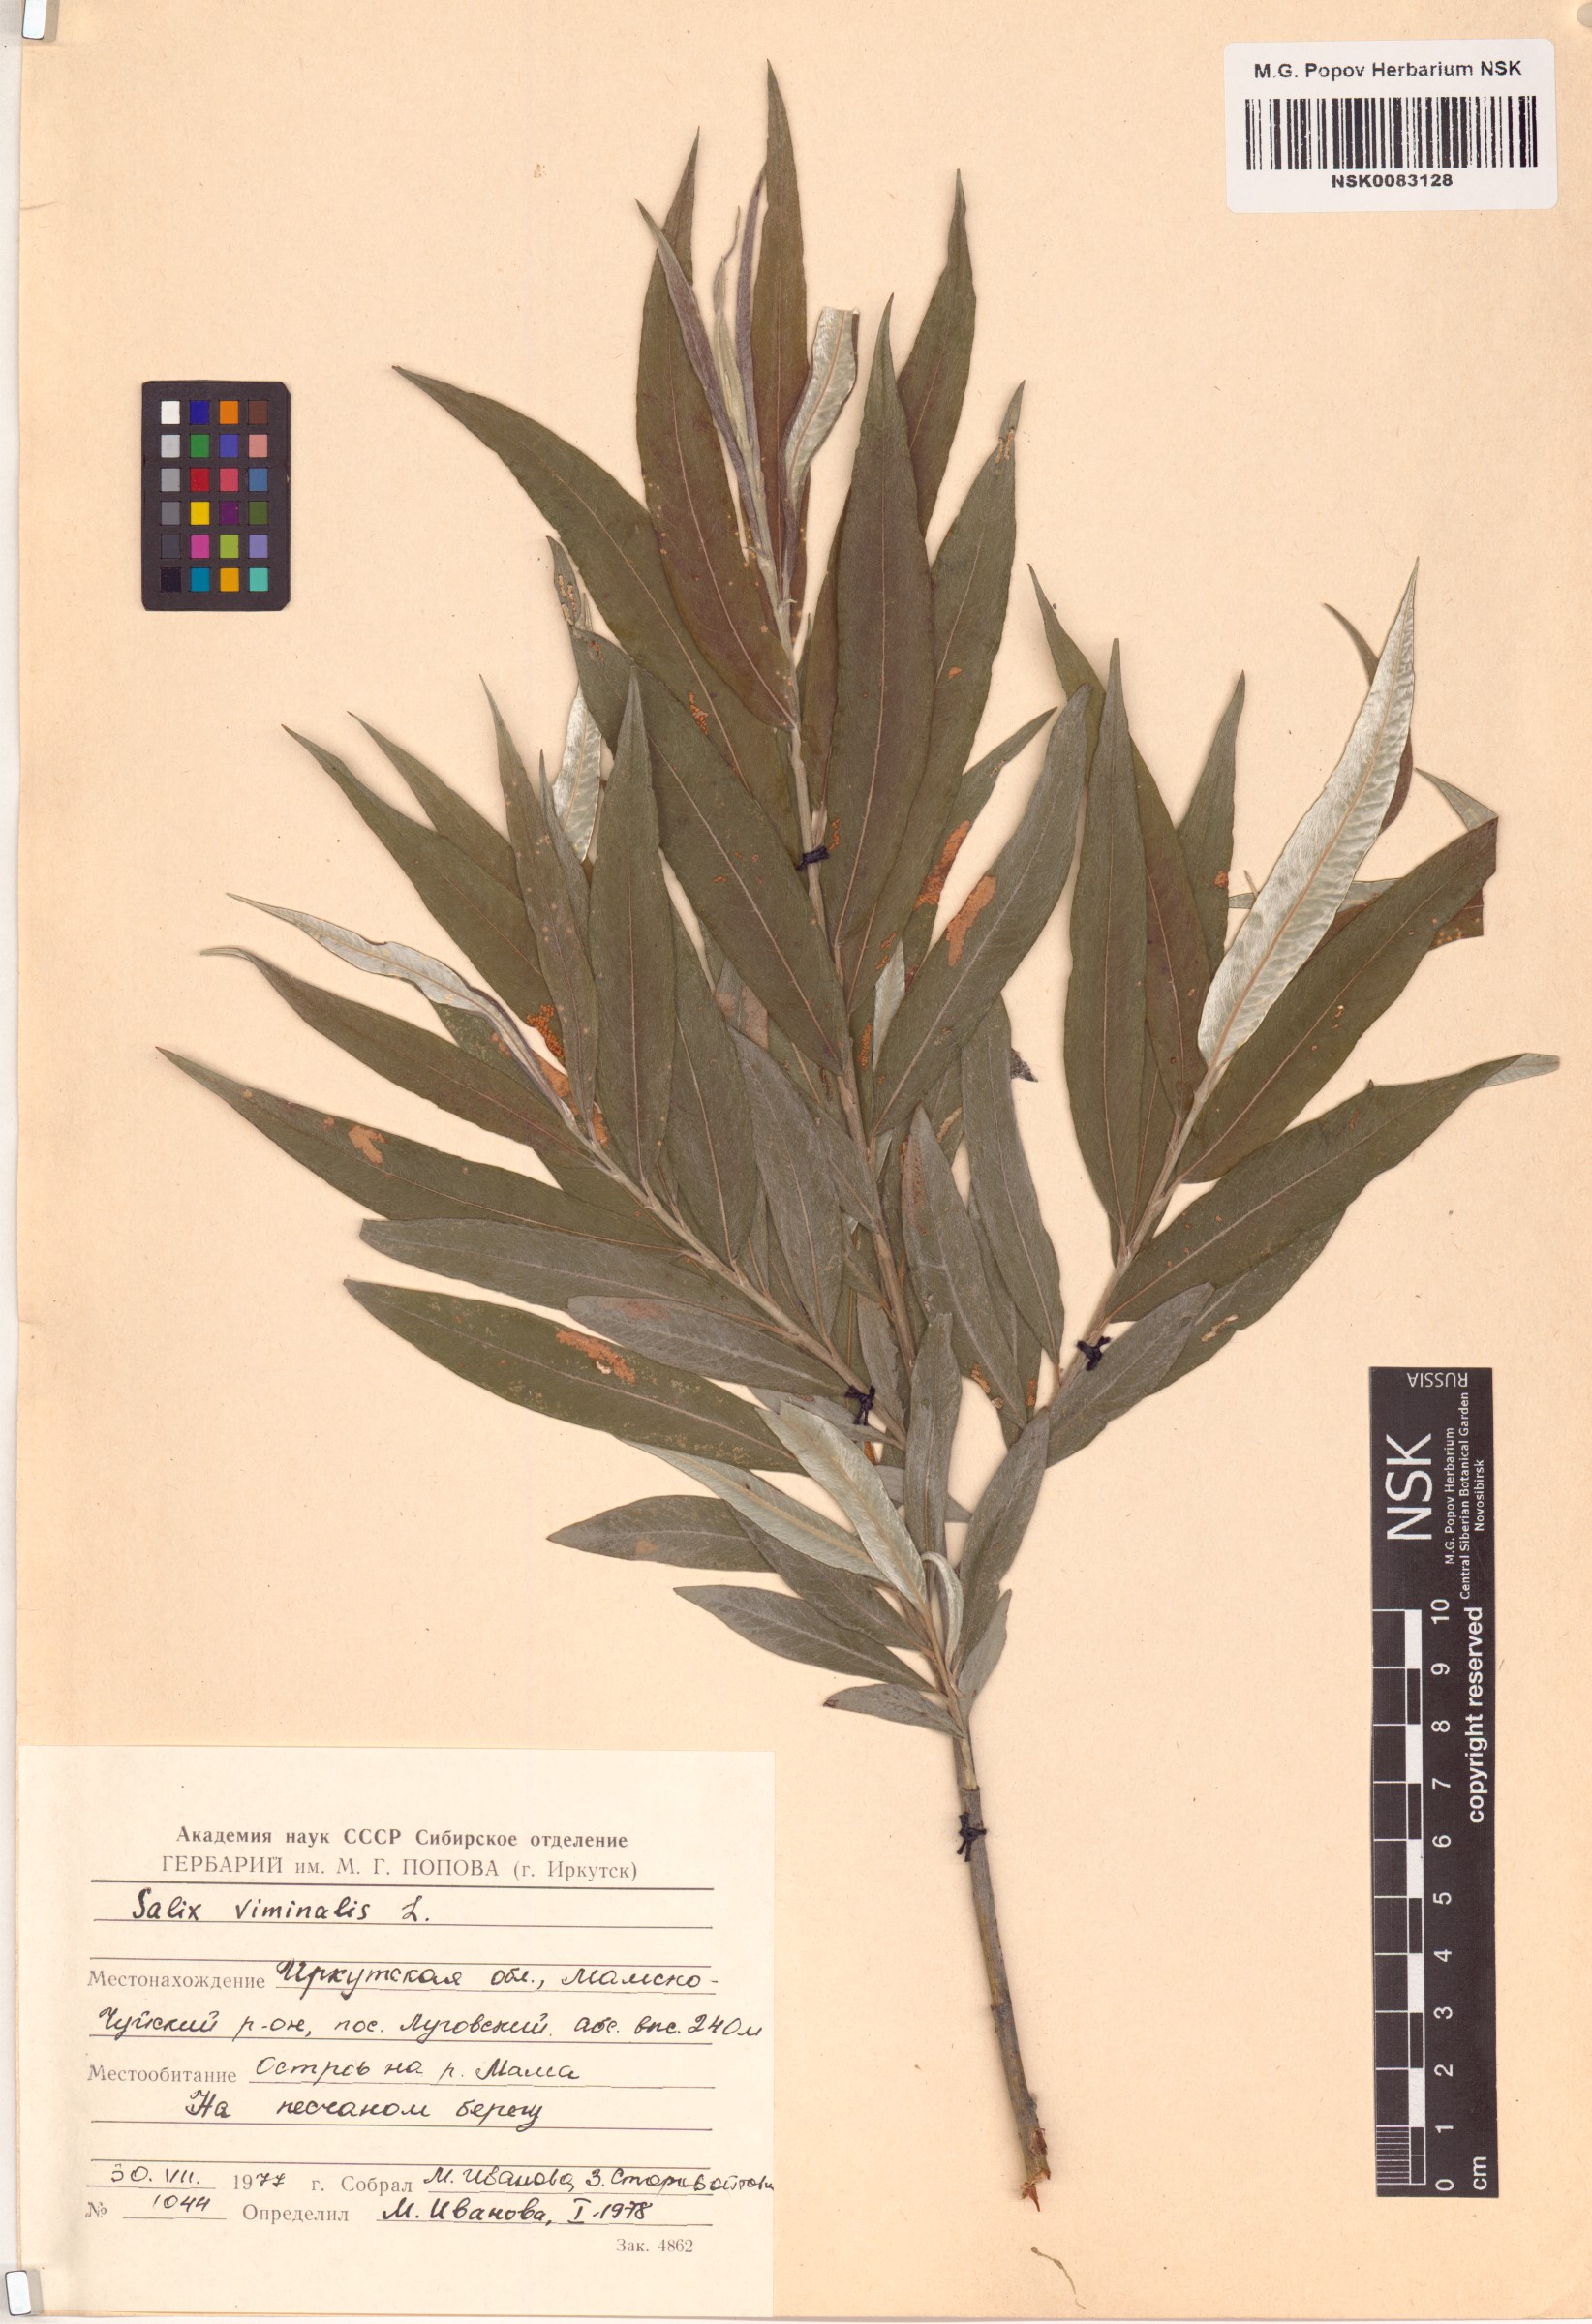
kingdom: Plantae
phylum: Tracheophyta
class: Magnoliopsida
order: Malpighiales
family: Salicaceae
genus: Salix
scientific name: Salix viminalis
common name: Osier
